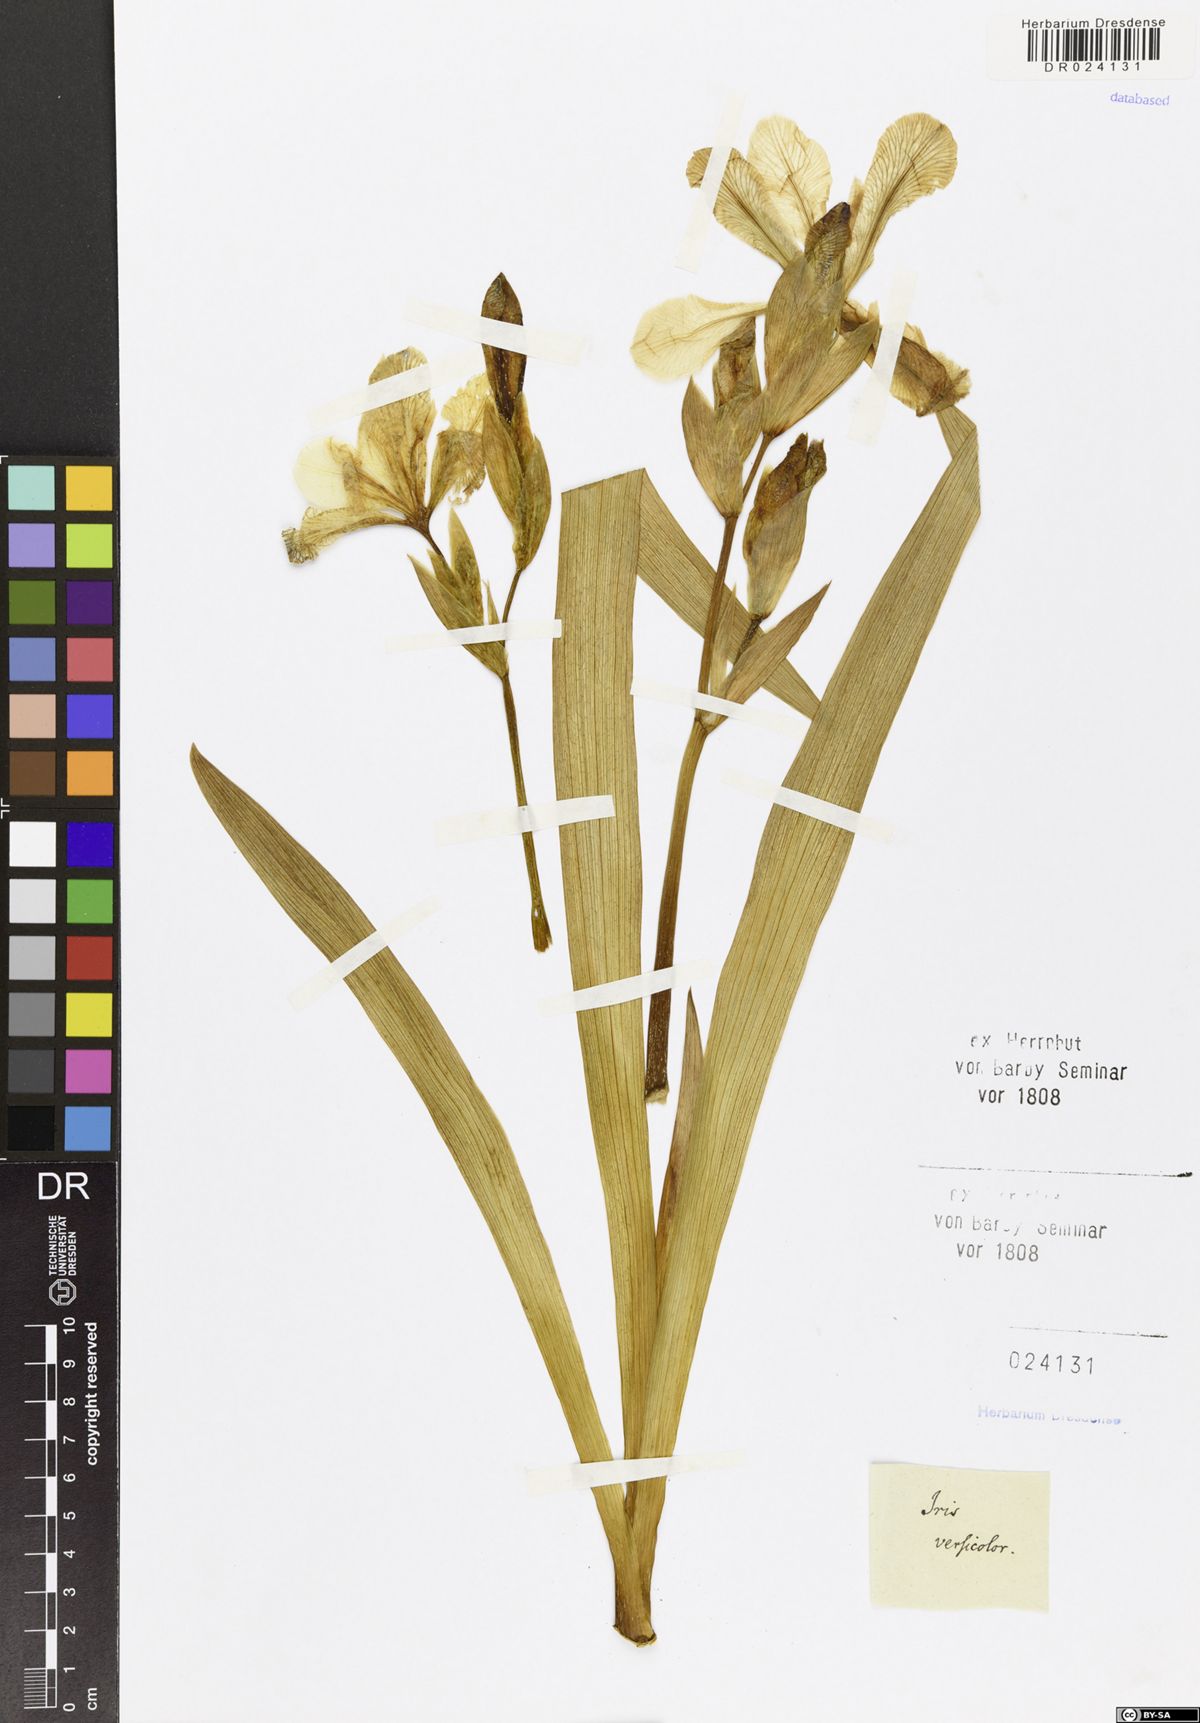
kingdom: Plantae
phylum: Tracheophyta
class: Liliopsida
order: Asparagales
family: Iridaceae
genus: Iris
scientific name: Iris versicolor
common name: Purple iris
